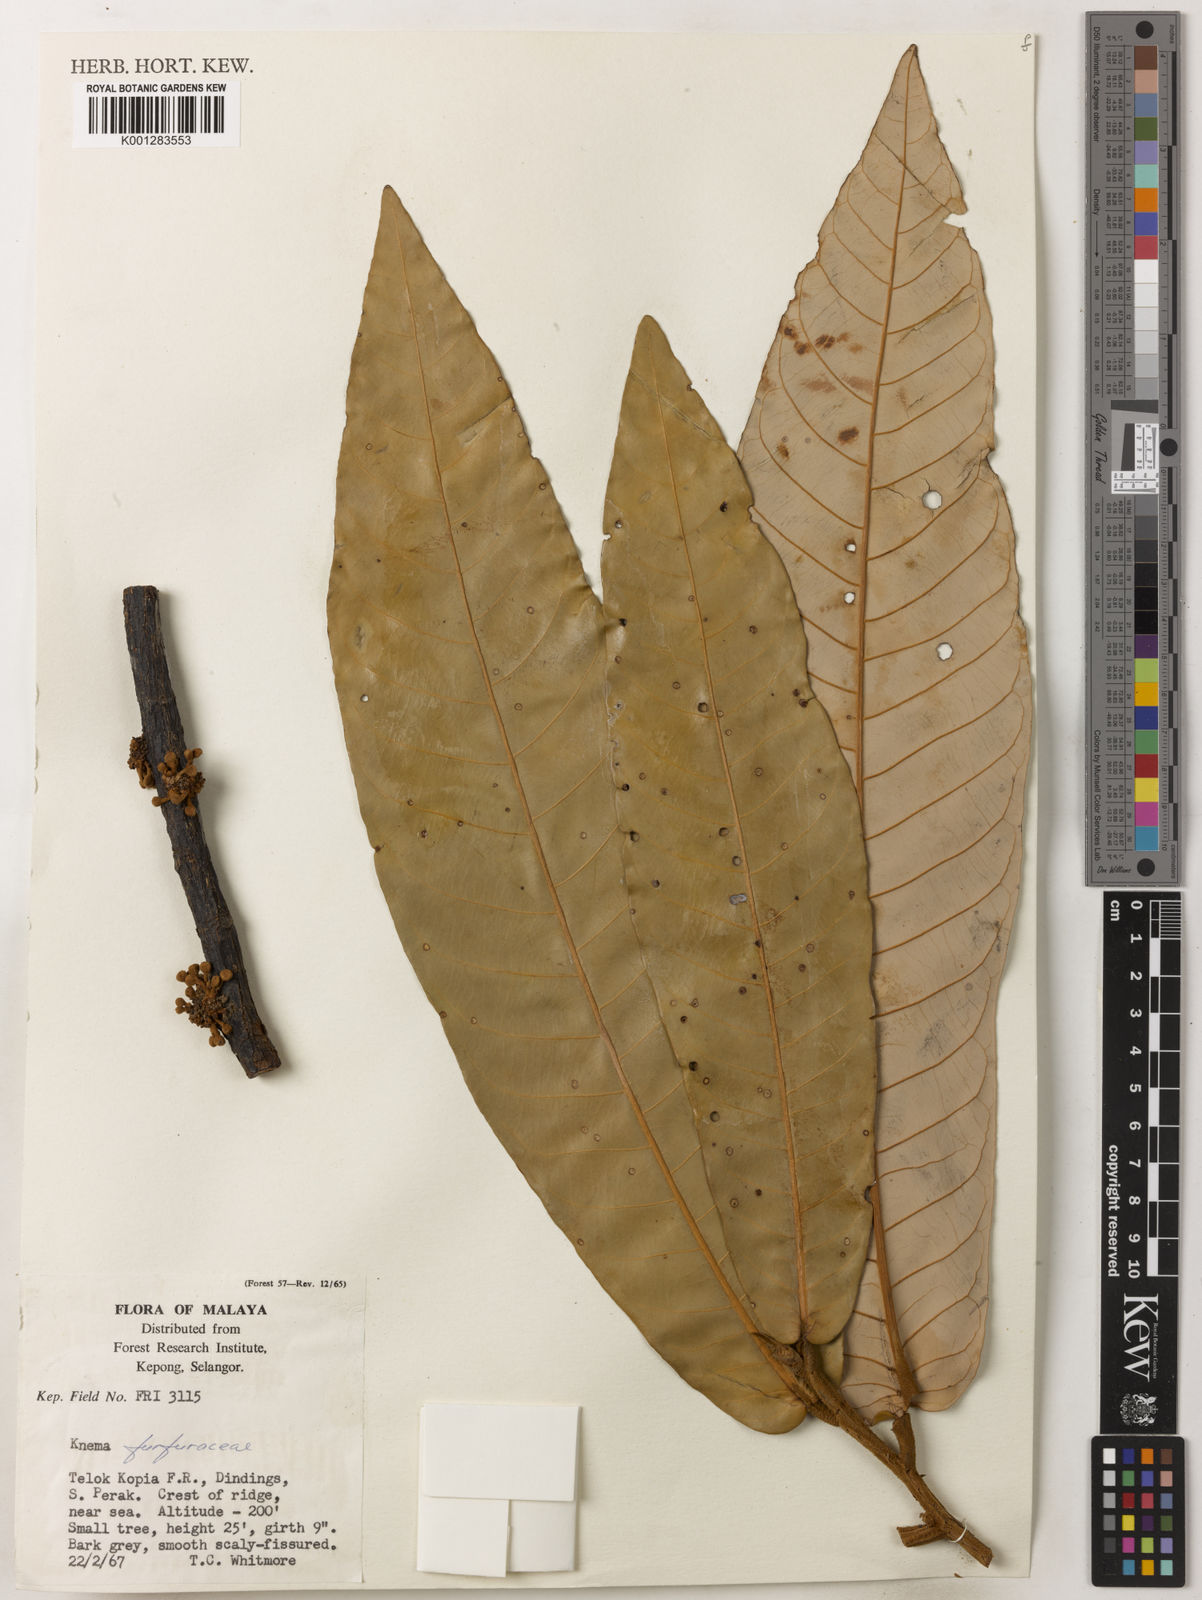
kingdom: Plantae
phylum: Tracheophyta
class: Magnoliopsida
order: Magnoliales
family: Myristicaceae
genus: Knema
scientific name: Knema furfuracea
